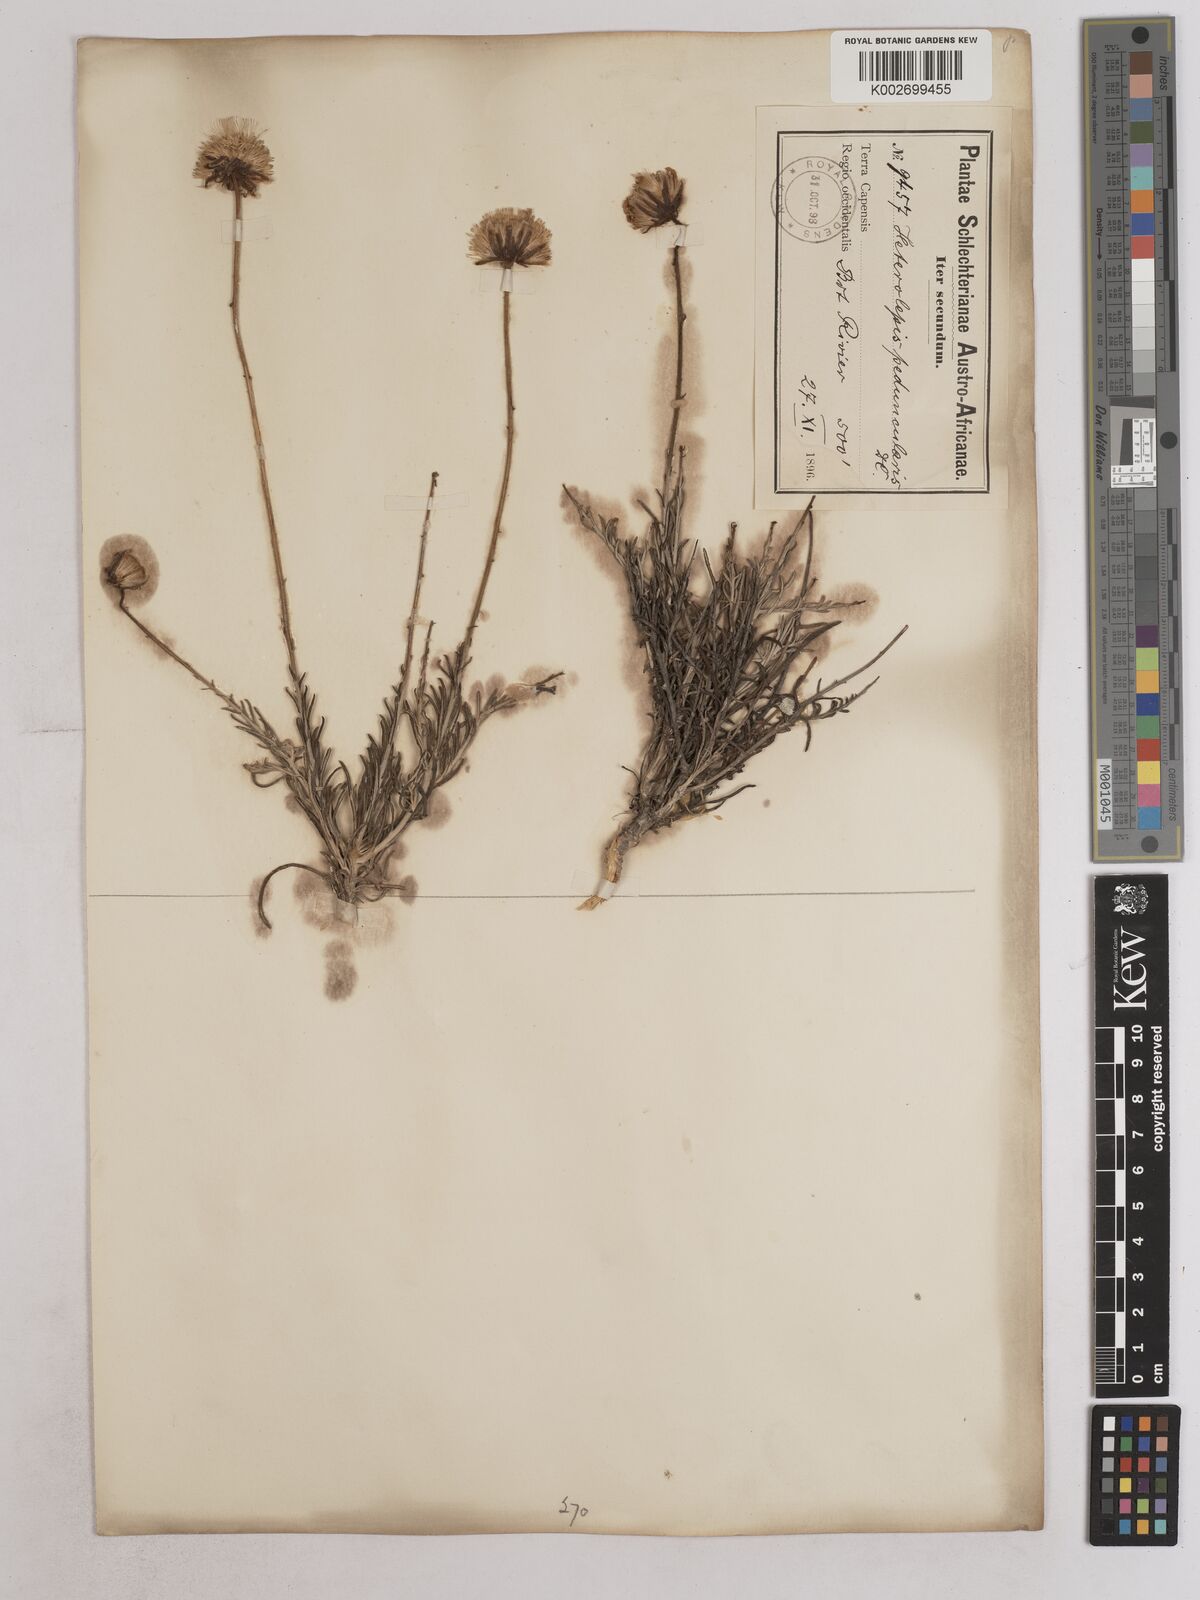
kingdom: Plantae
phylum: Tracheophyta
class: Magnoliopsida
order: Asterales
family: Asteraceae
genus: Heterolepis
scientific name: Heterolepis peduncularis
